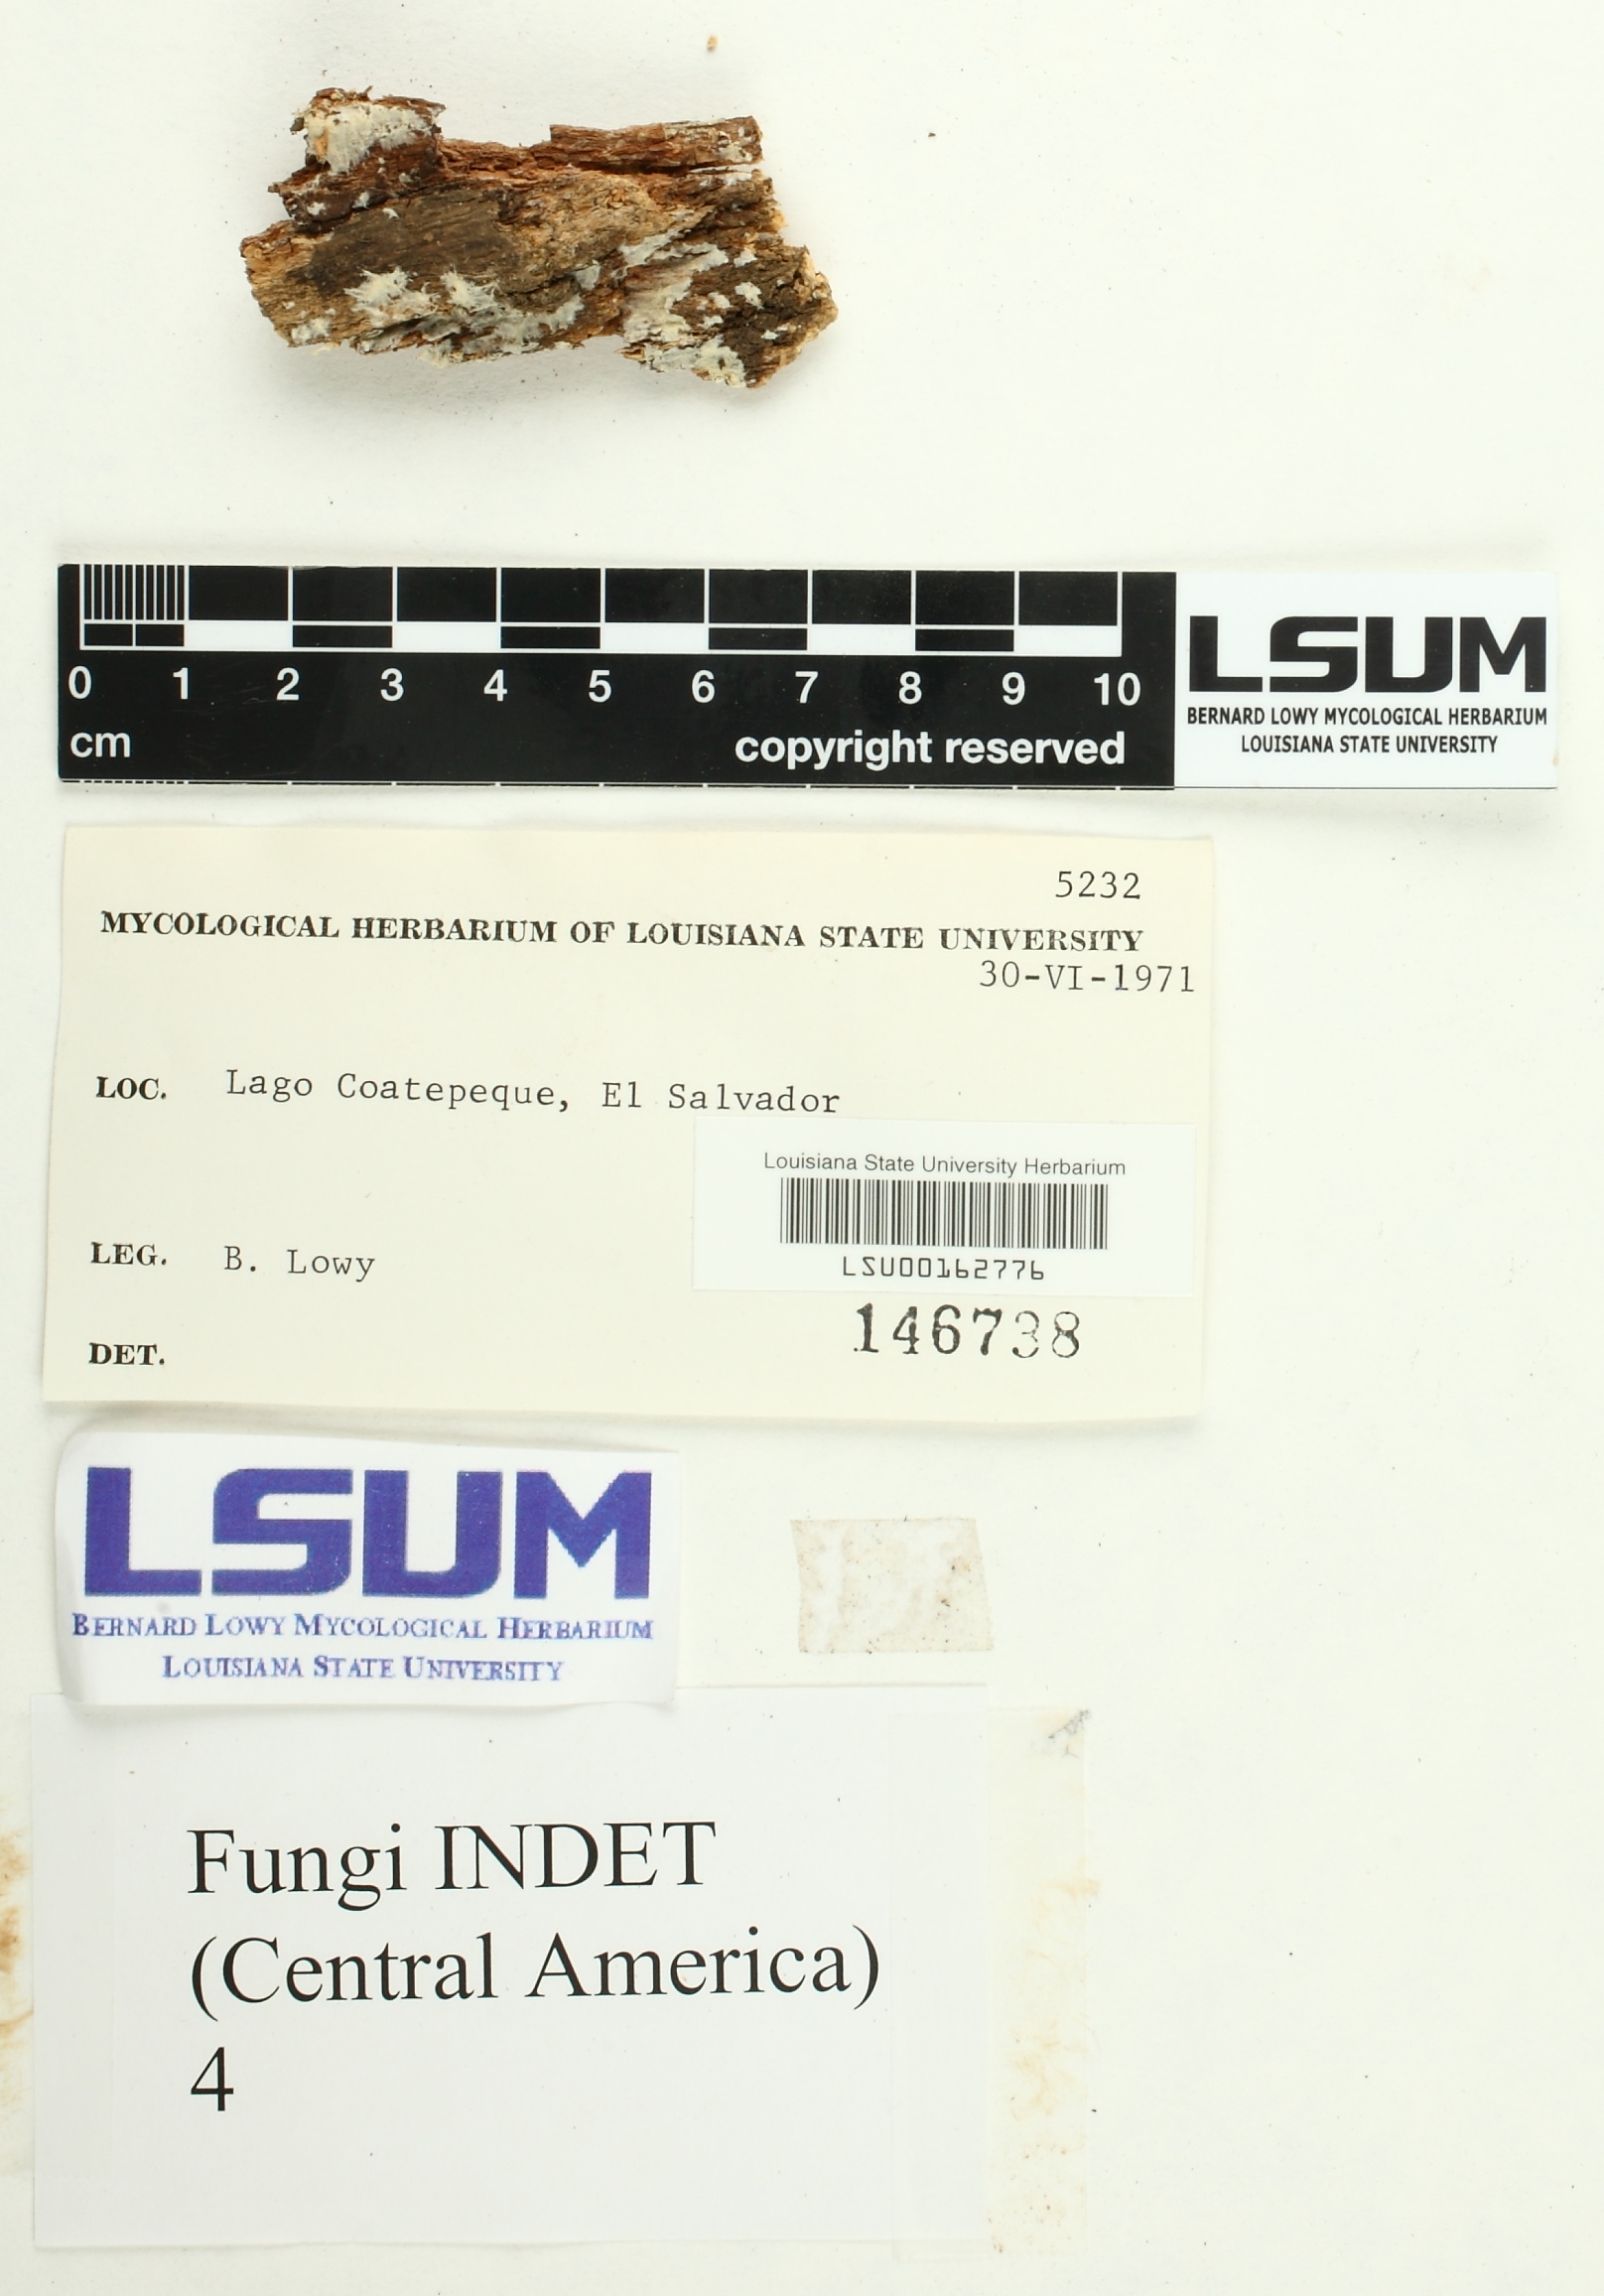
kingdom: Fungi
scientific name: Fungi
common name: Fungi
